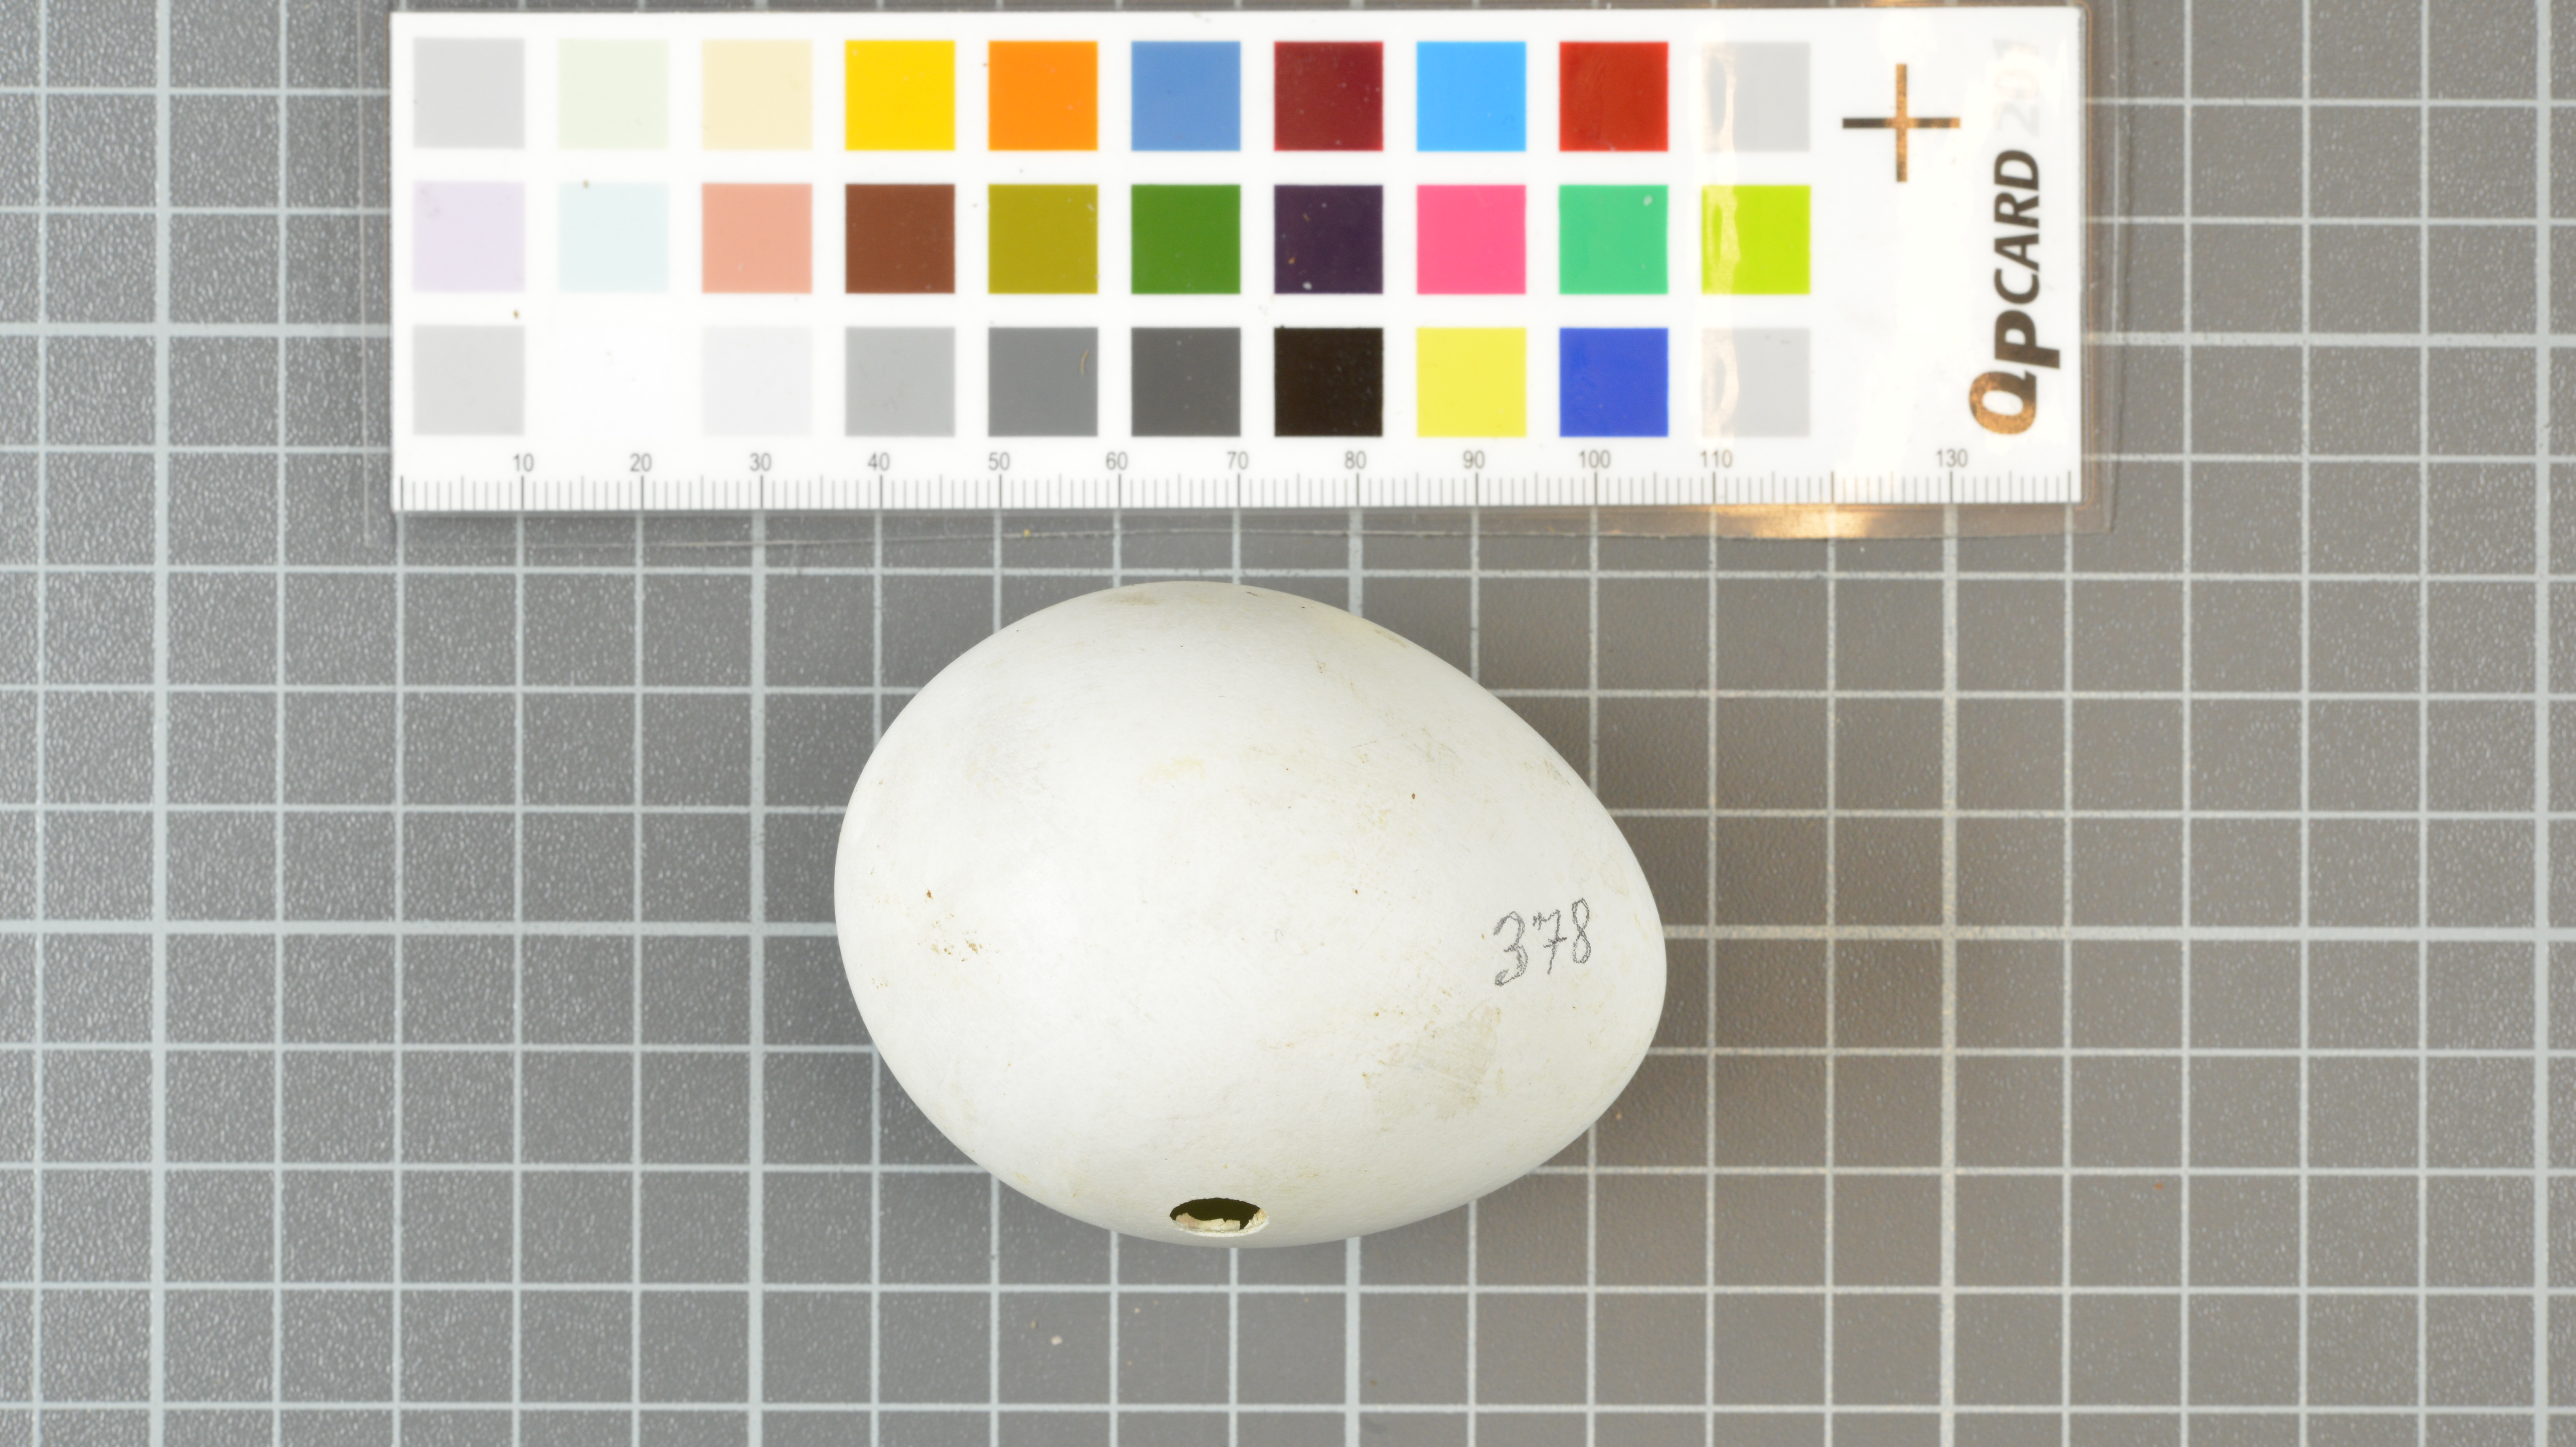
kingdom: Animalia
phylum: Chordata
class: Aves
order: Sphenisciformes
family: Spheniscidae
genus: Eudyptes
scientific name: Eudyptes moseleyi
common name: Northern rockhopper penguin
